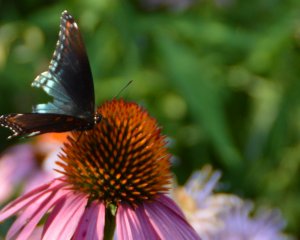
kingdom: Animalia
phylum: Arthropoda
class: Insecta
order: Lepidoptera
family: Nymphalidae
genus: Limenitis
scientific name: Limenitis astyanax
